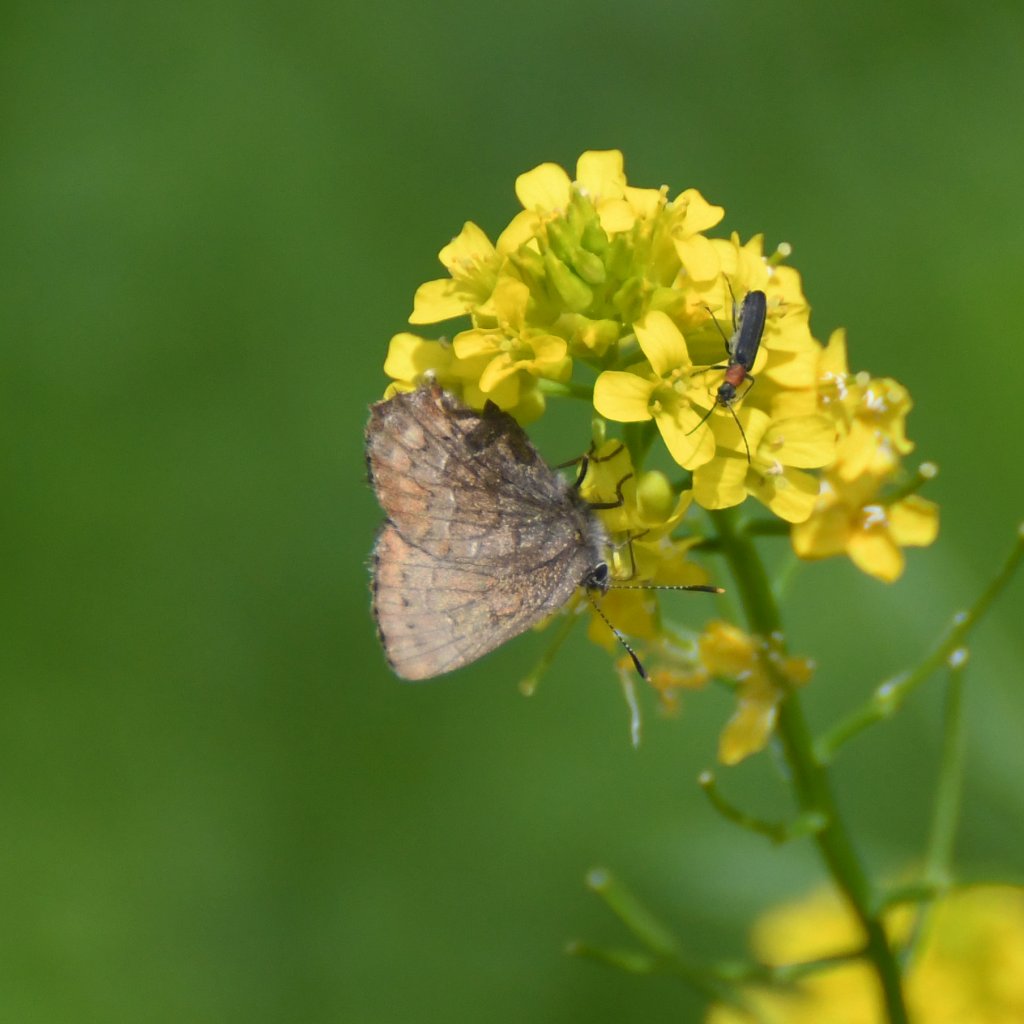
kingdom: Animalia
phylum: Arthropoda
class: Insecta
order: Lepidoptera
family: Lycaenidae
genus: Incisalia
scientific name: Incisalia niphon
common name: Eastern Pine Elfin
